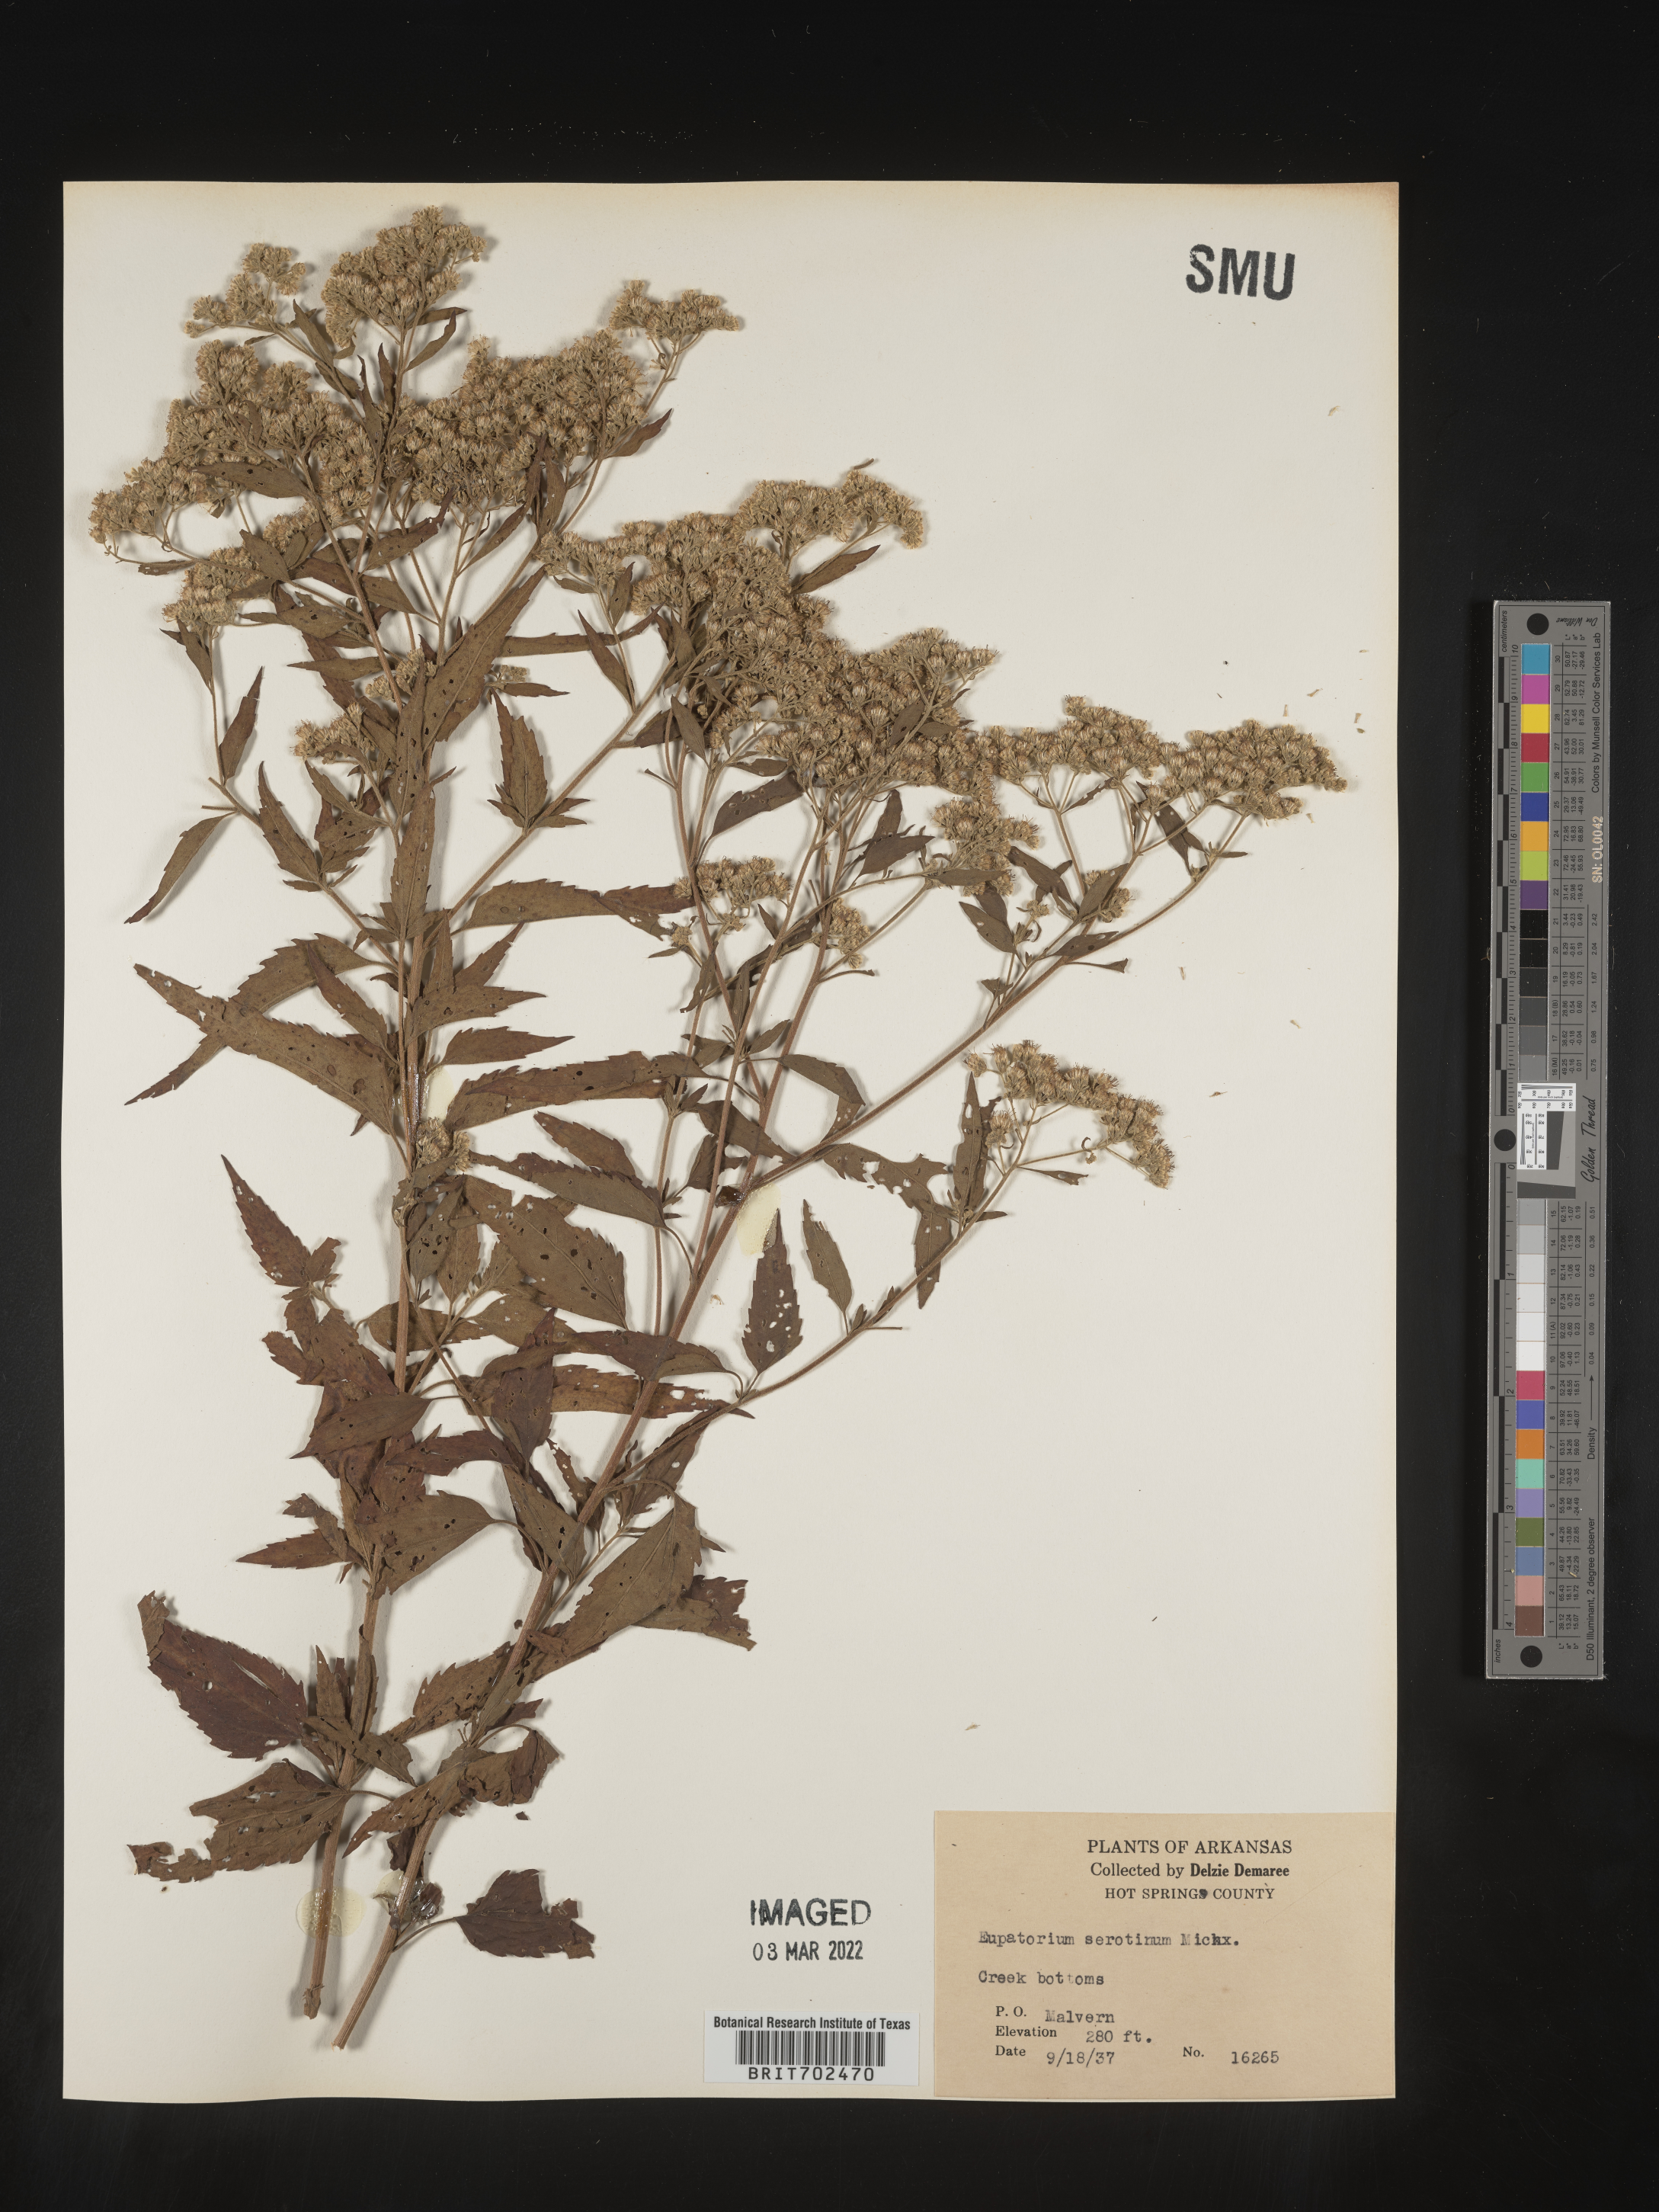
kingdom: Plantae
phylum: Tracheophyta
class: Magnoliopsida
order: Asterales
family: Asteraceae
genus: Eupatorium
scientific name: Eupatorium serotinum
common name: Late boneset
